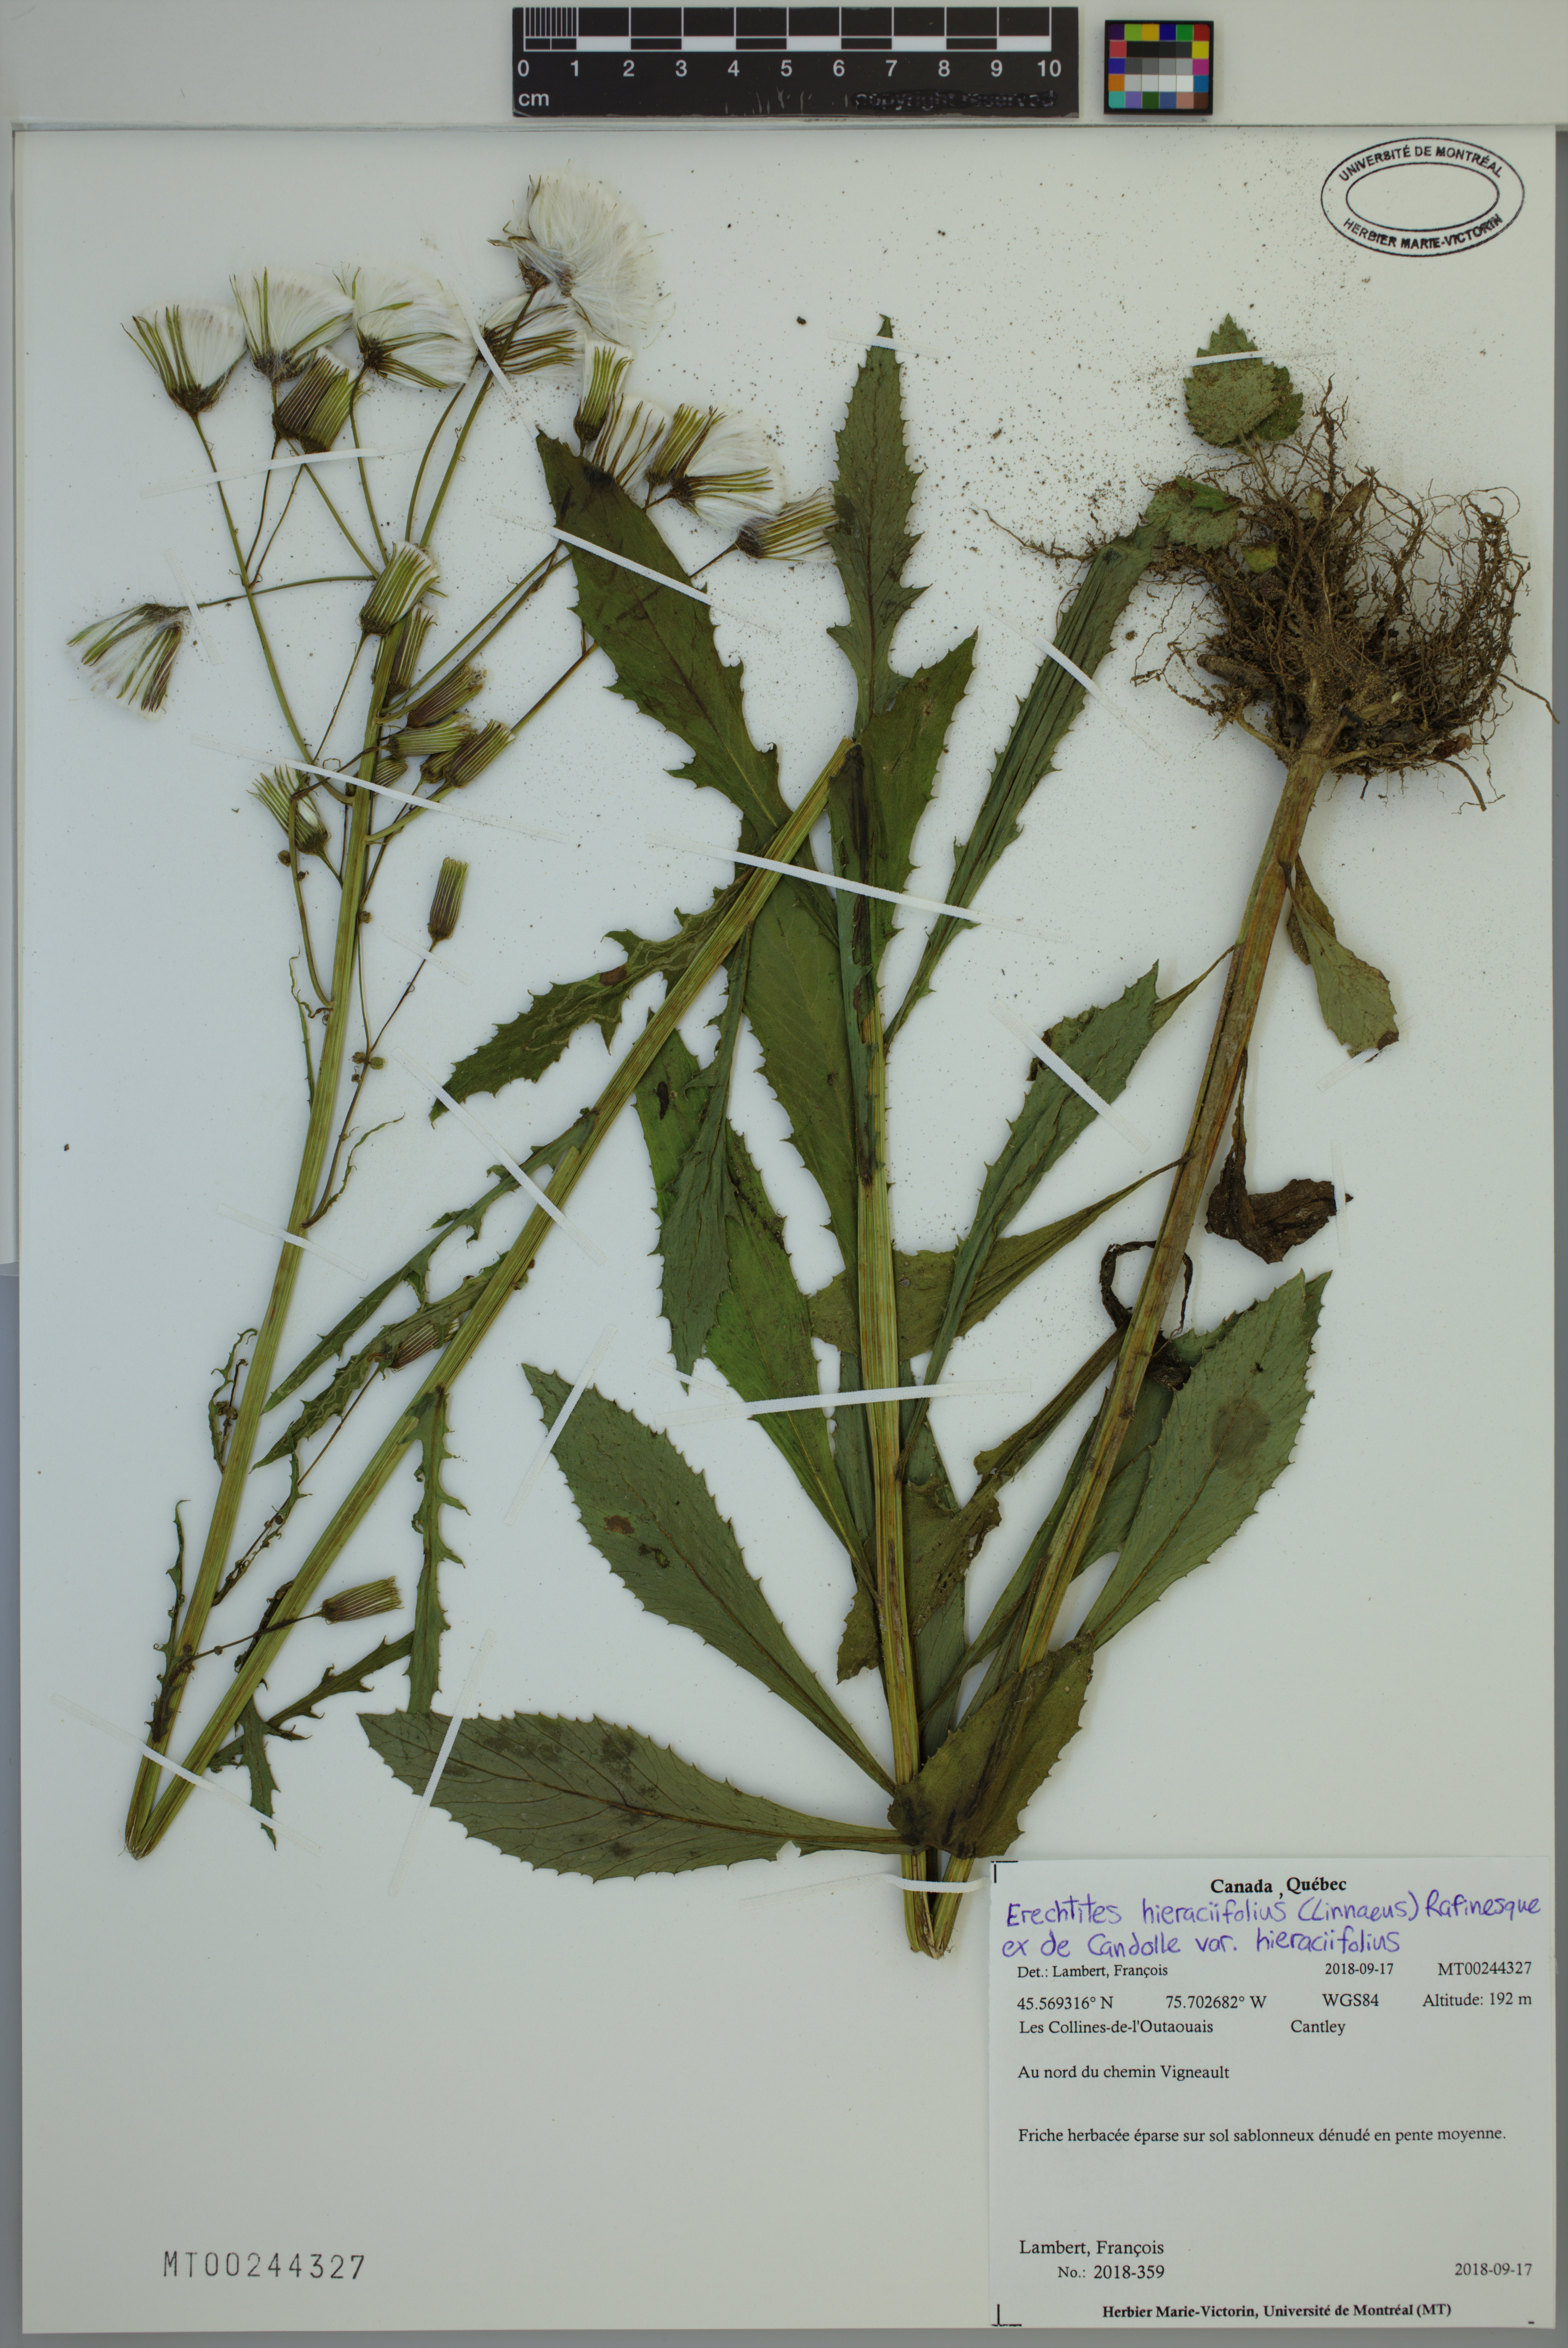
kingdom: Plantae
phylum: Tracheophyta
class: Magnoliopsida
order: Asterales
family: Asteraceae
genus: Erechtites
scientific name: Erechtites hieraciifolius
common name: American burnweed
